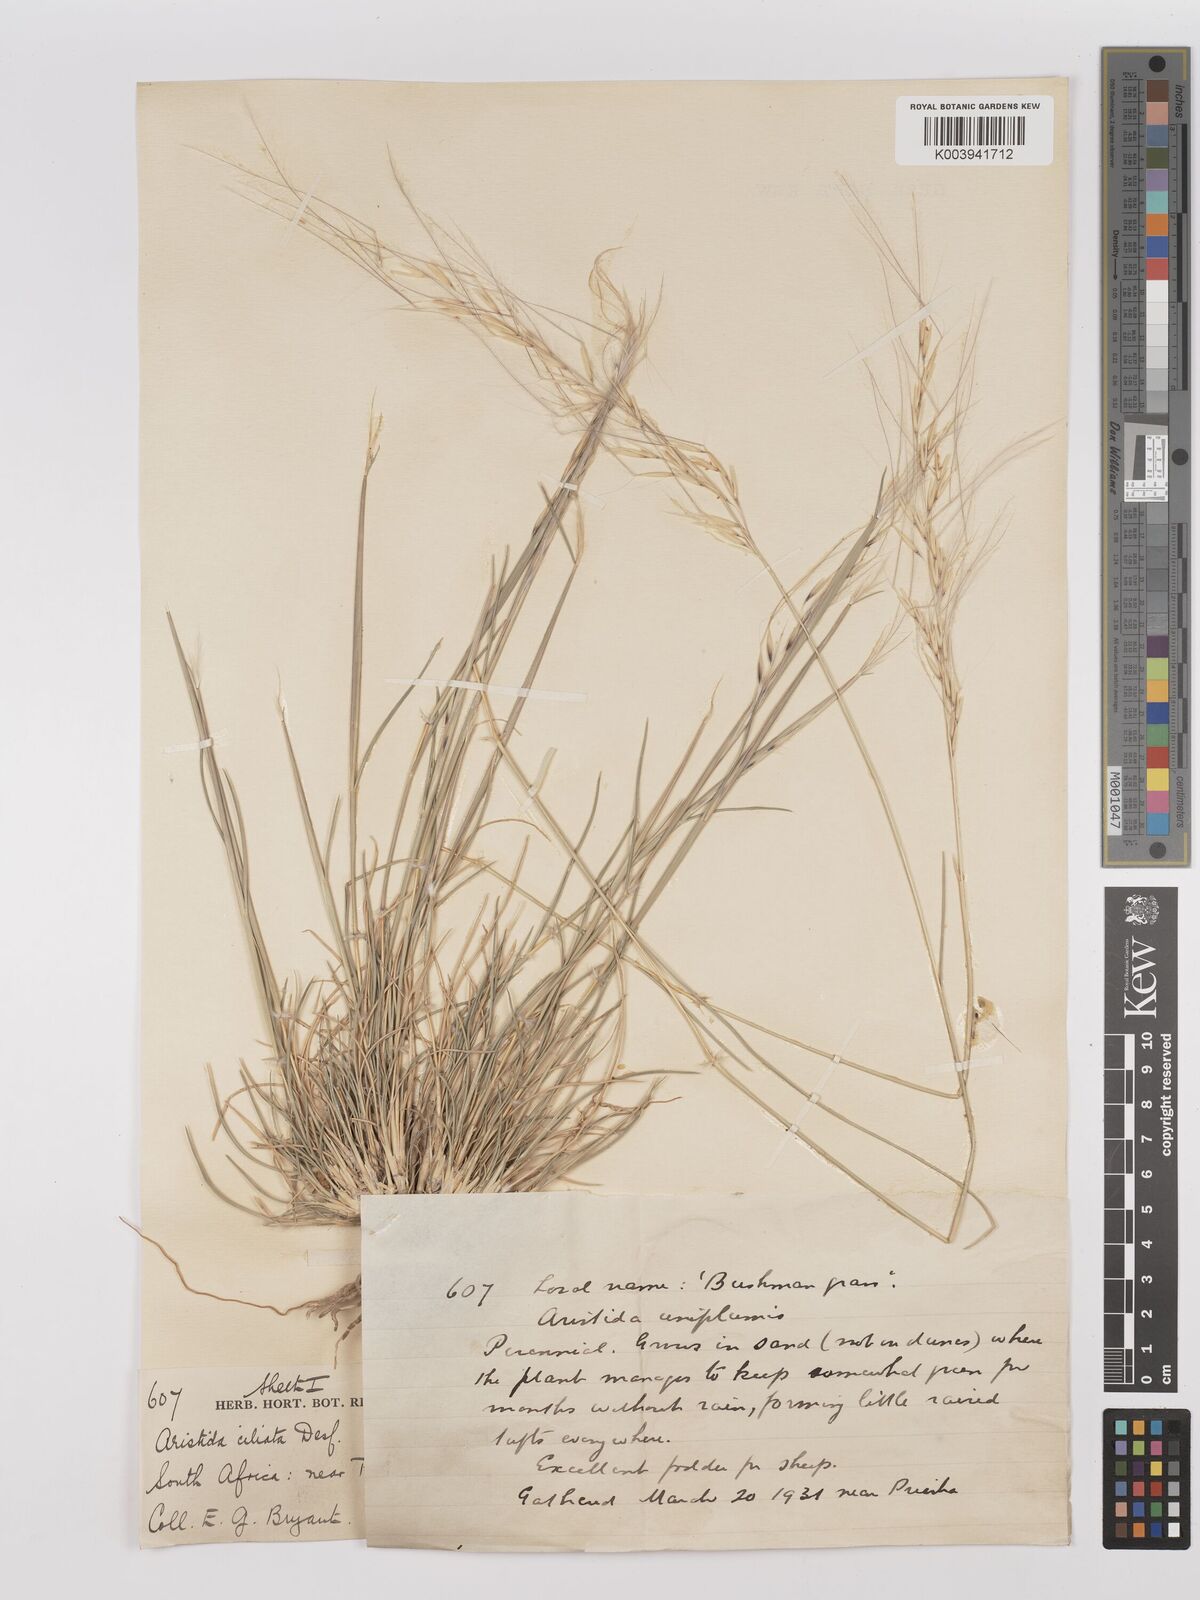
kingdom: Plantae
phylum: Tracheophyta
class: Liliopsida
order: Poales
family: Poaceae
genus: Stipagrostis
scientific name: Stipagrostis ciliata
